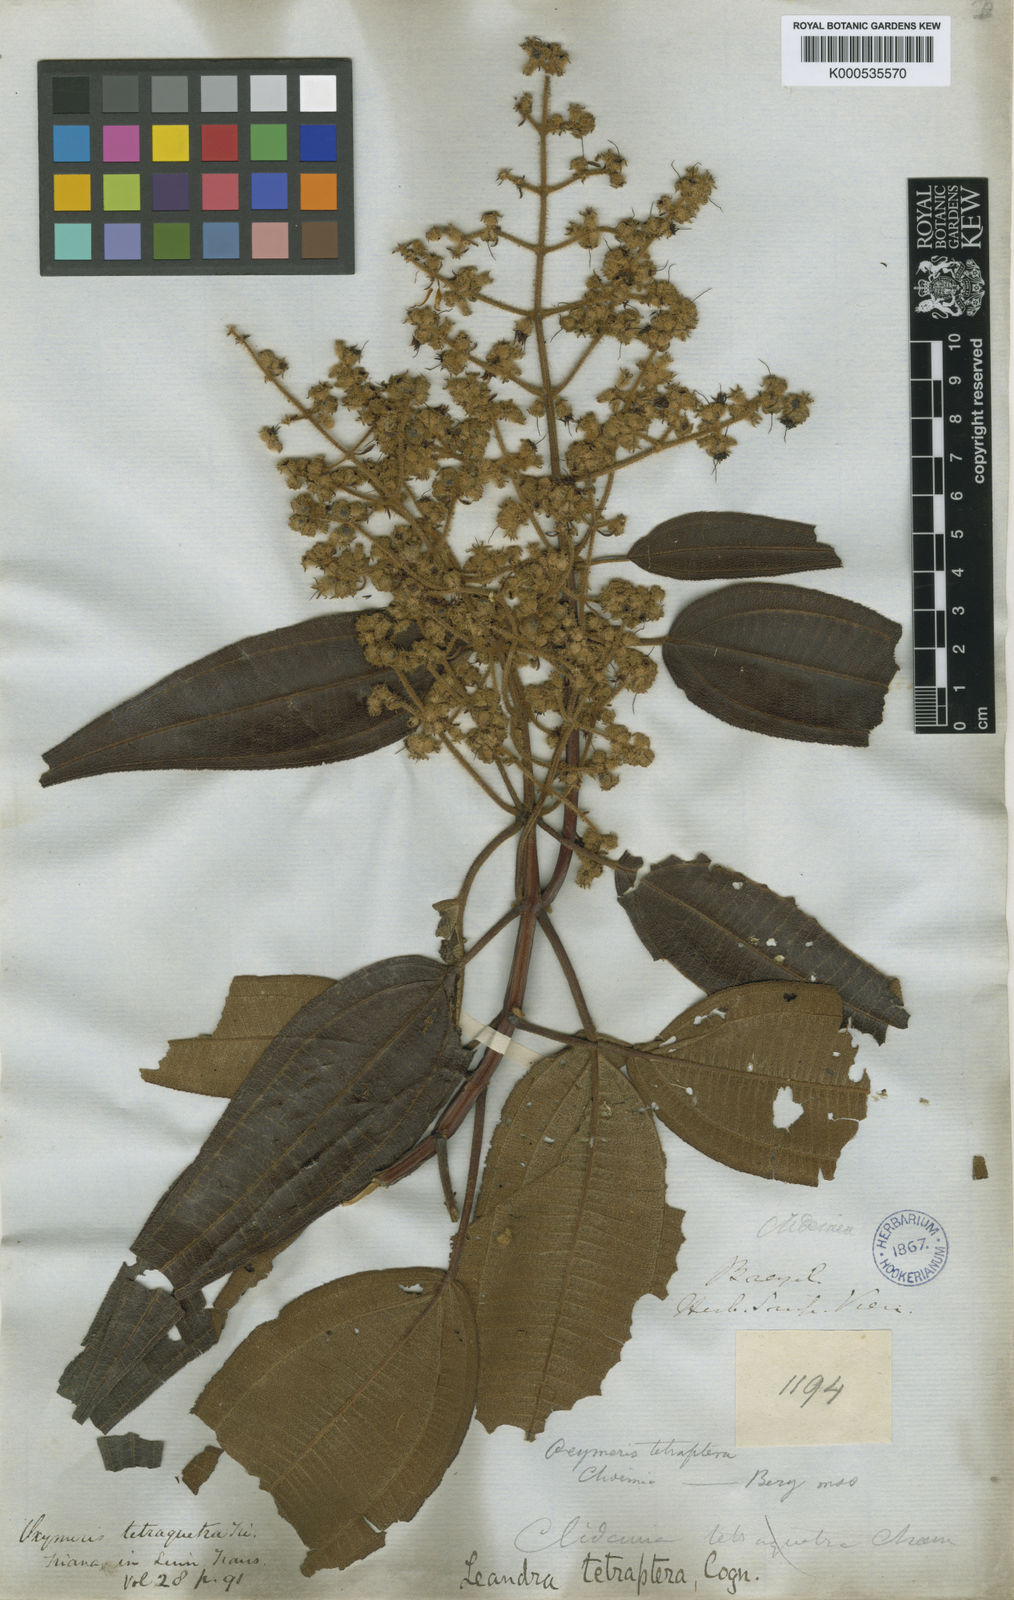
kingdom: Plantae
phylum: Tracheophyta
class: Magnoliopsida
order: Myrtales
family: Melastomataceae
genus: Miconia
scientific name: Miconia leatetraptera
